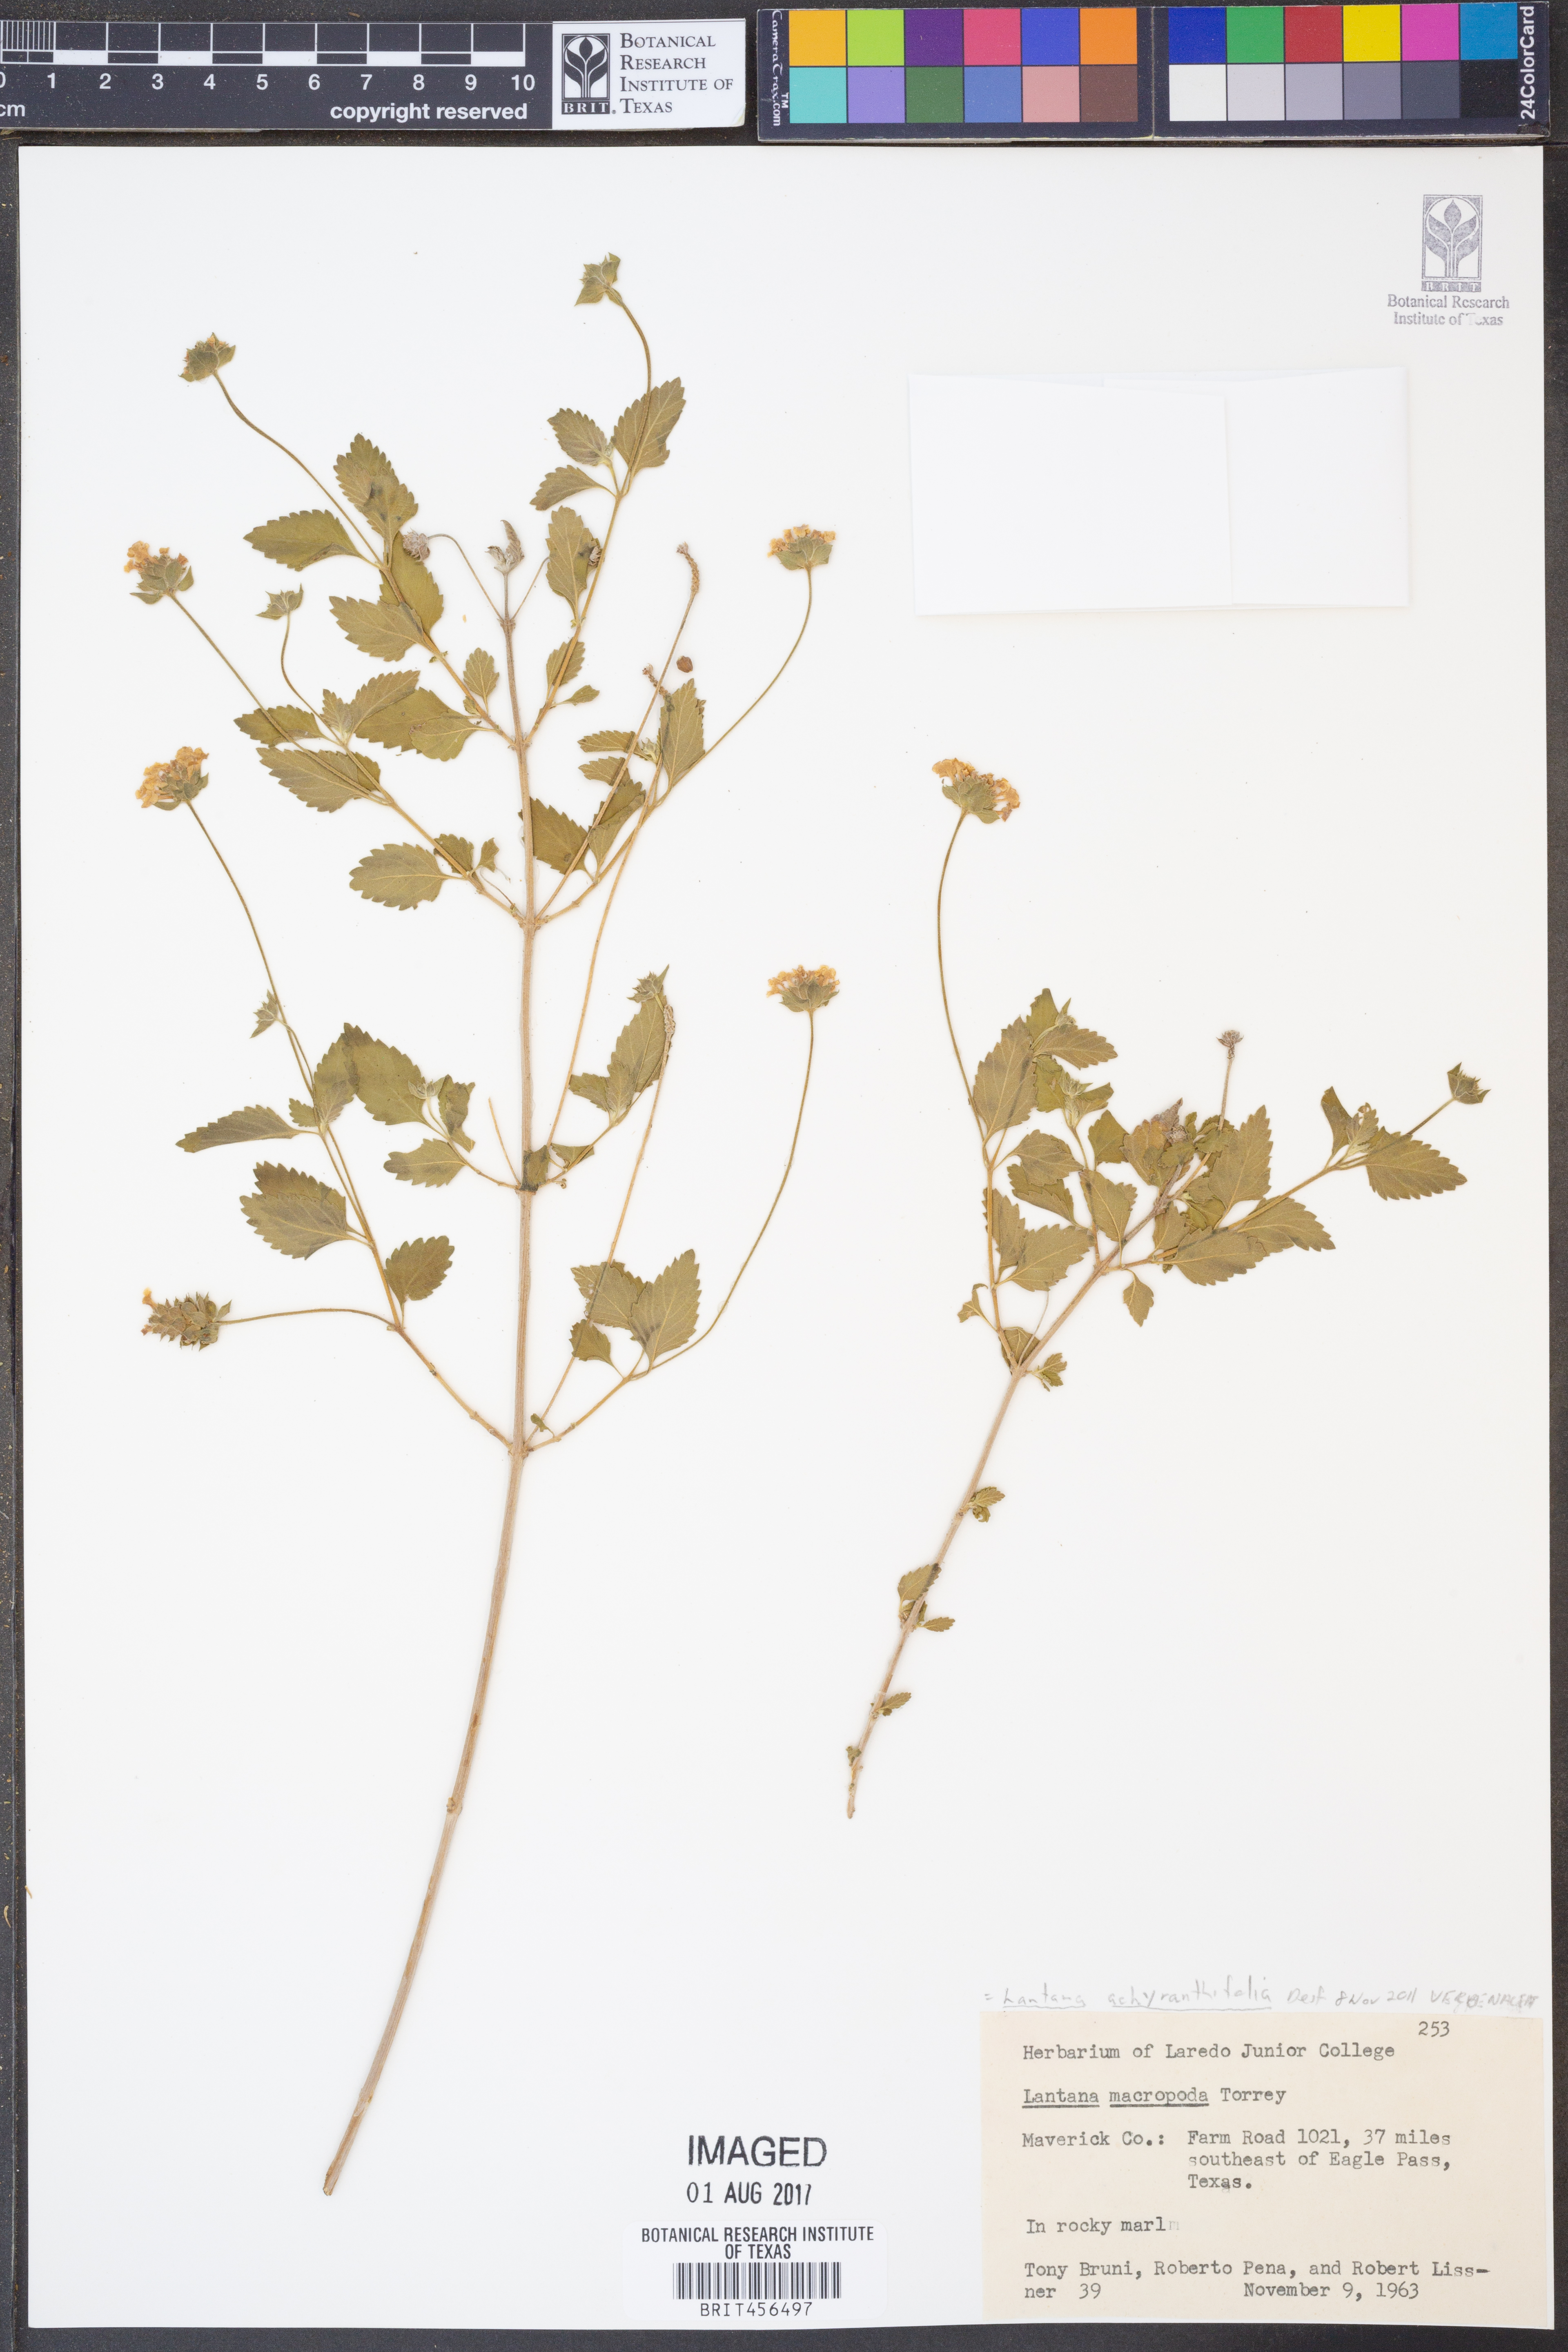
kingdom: Plantae
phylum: Tracheophyta
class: Magnoliopsida
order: Lamiales
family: Verbenaceae
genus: Lantana
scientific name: Lantana achyranthifolia
